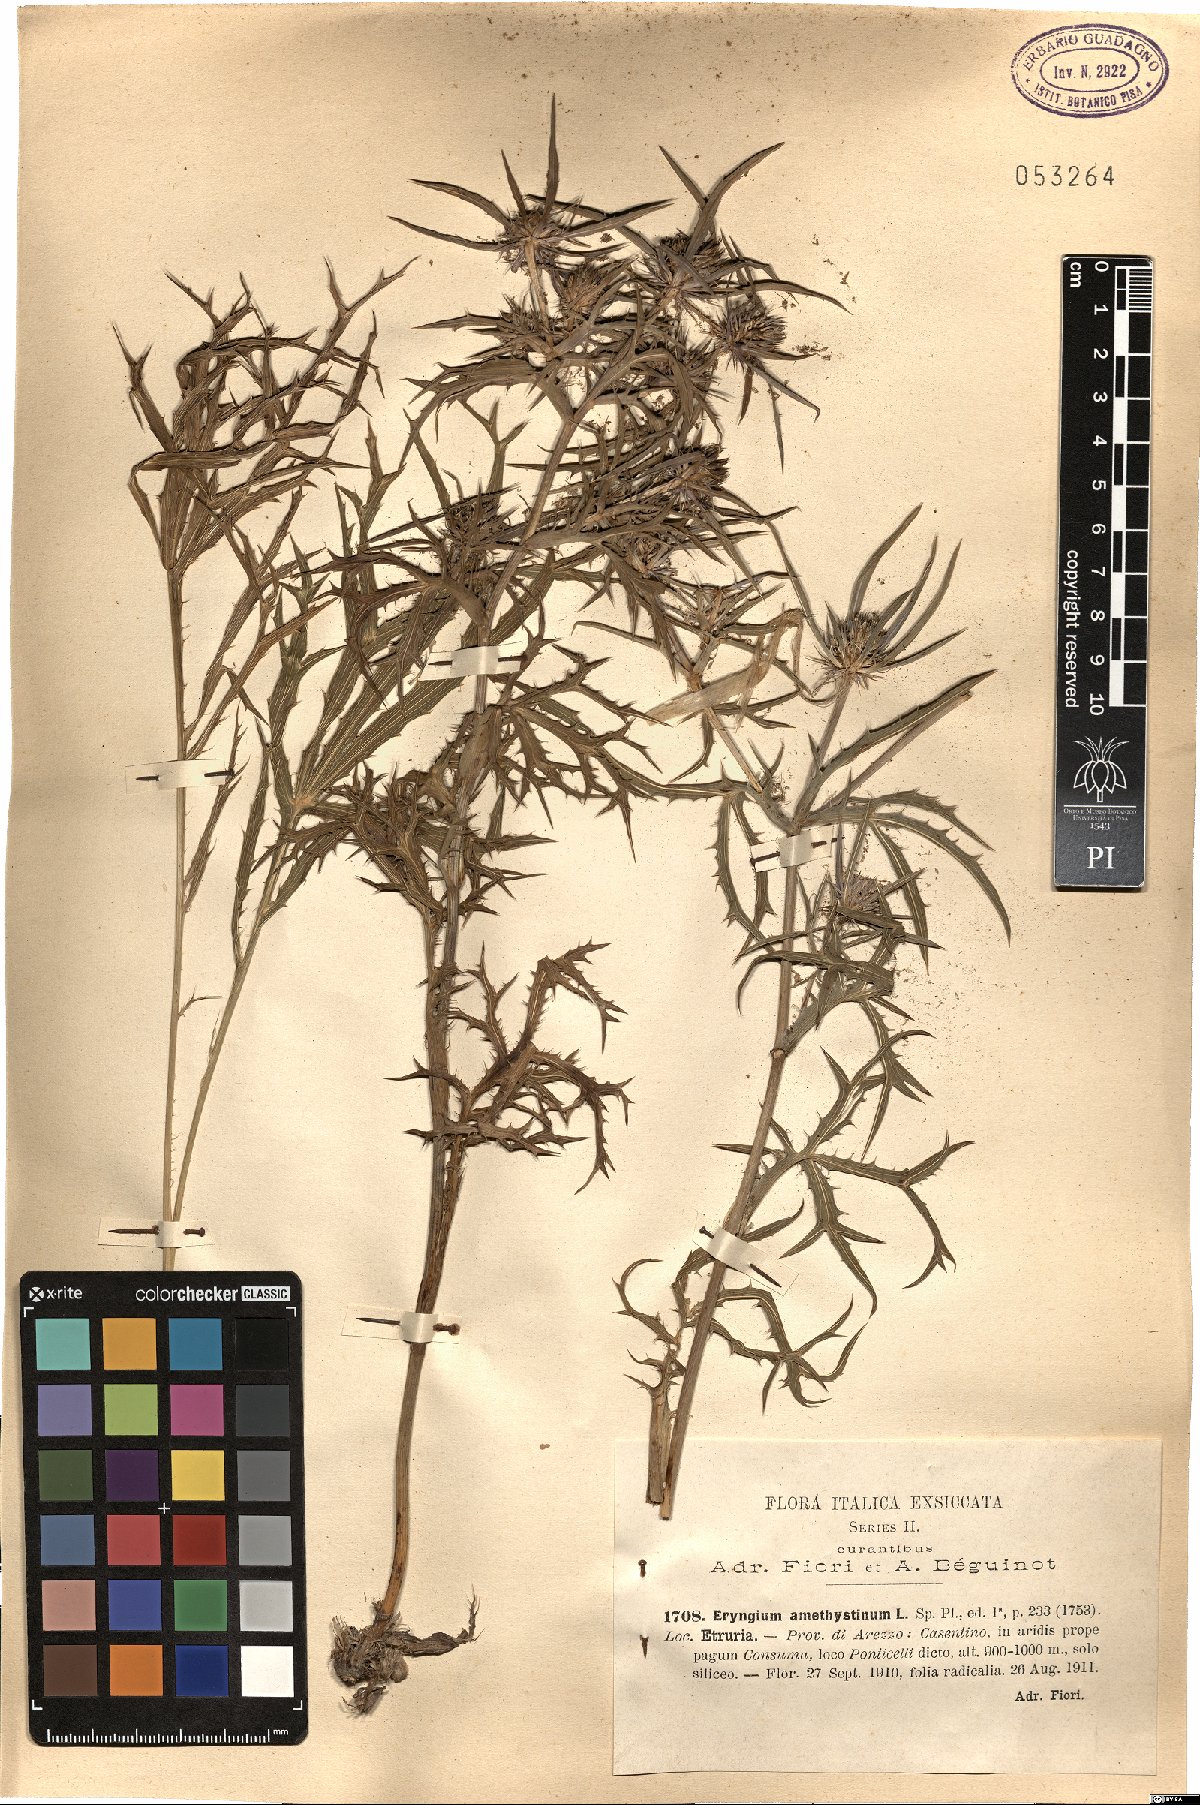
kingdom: Plantae
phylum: Tracheophyta
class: Magnoliopsida
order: Apiales
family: Apiaceae
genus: Eryngium
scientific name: Eryngium amethystinum
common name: Amethyst eryngo
